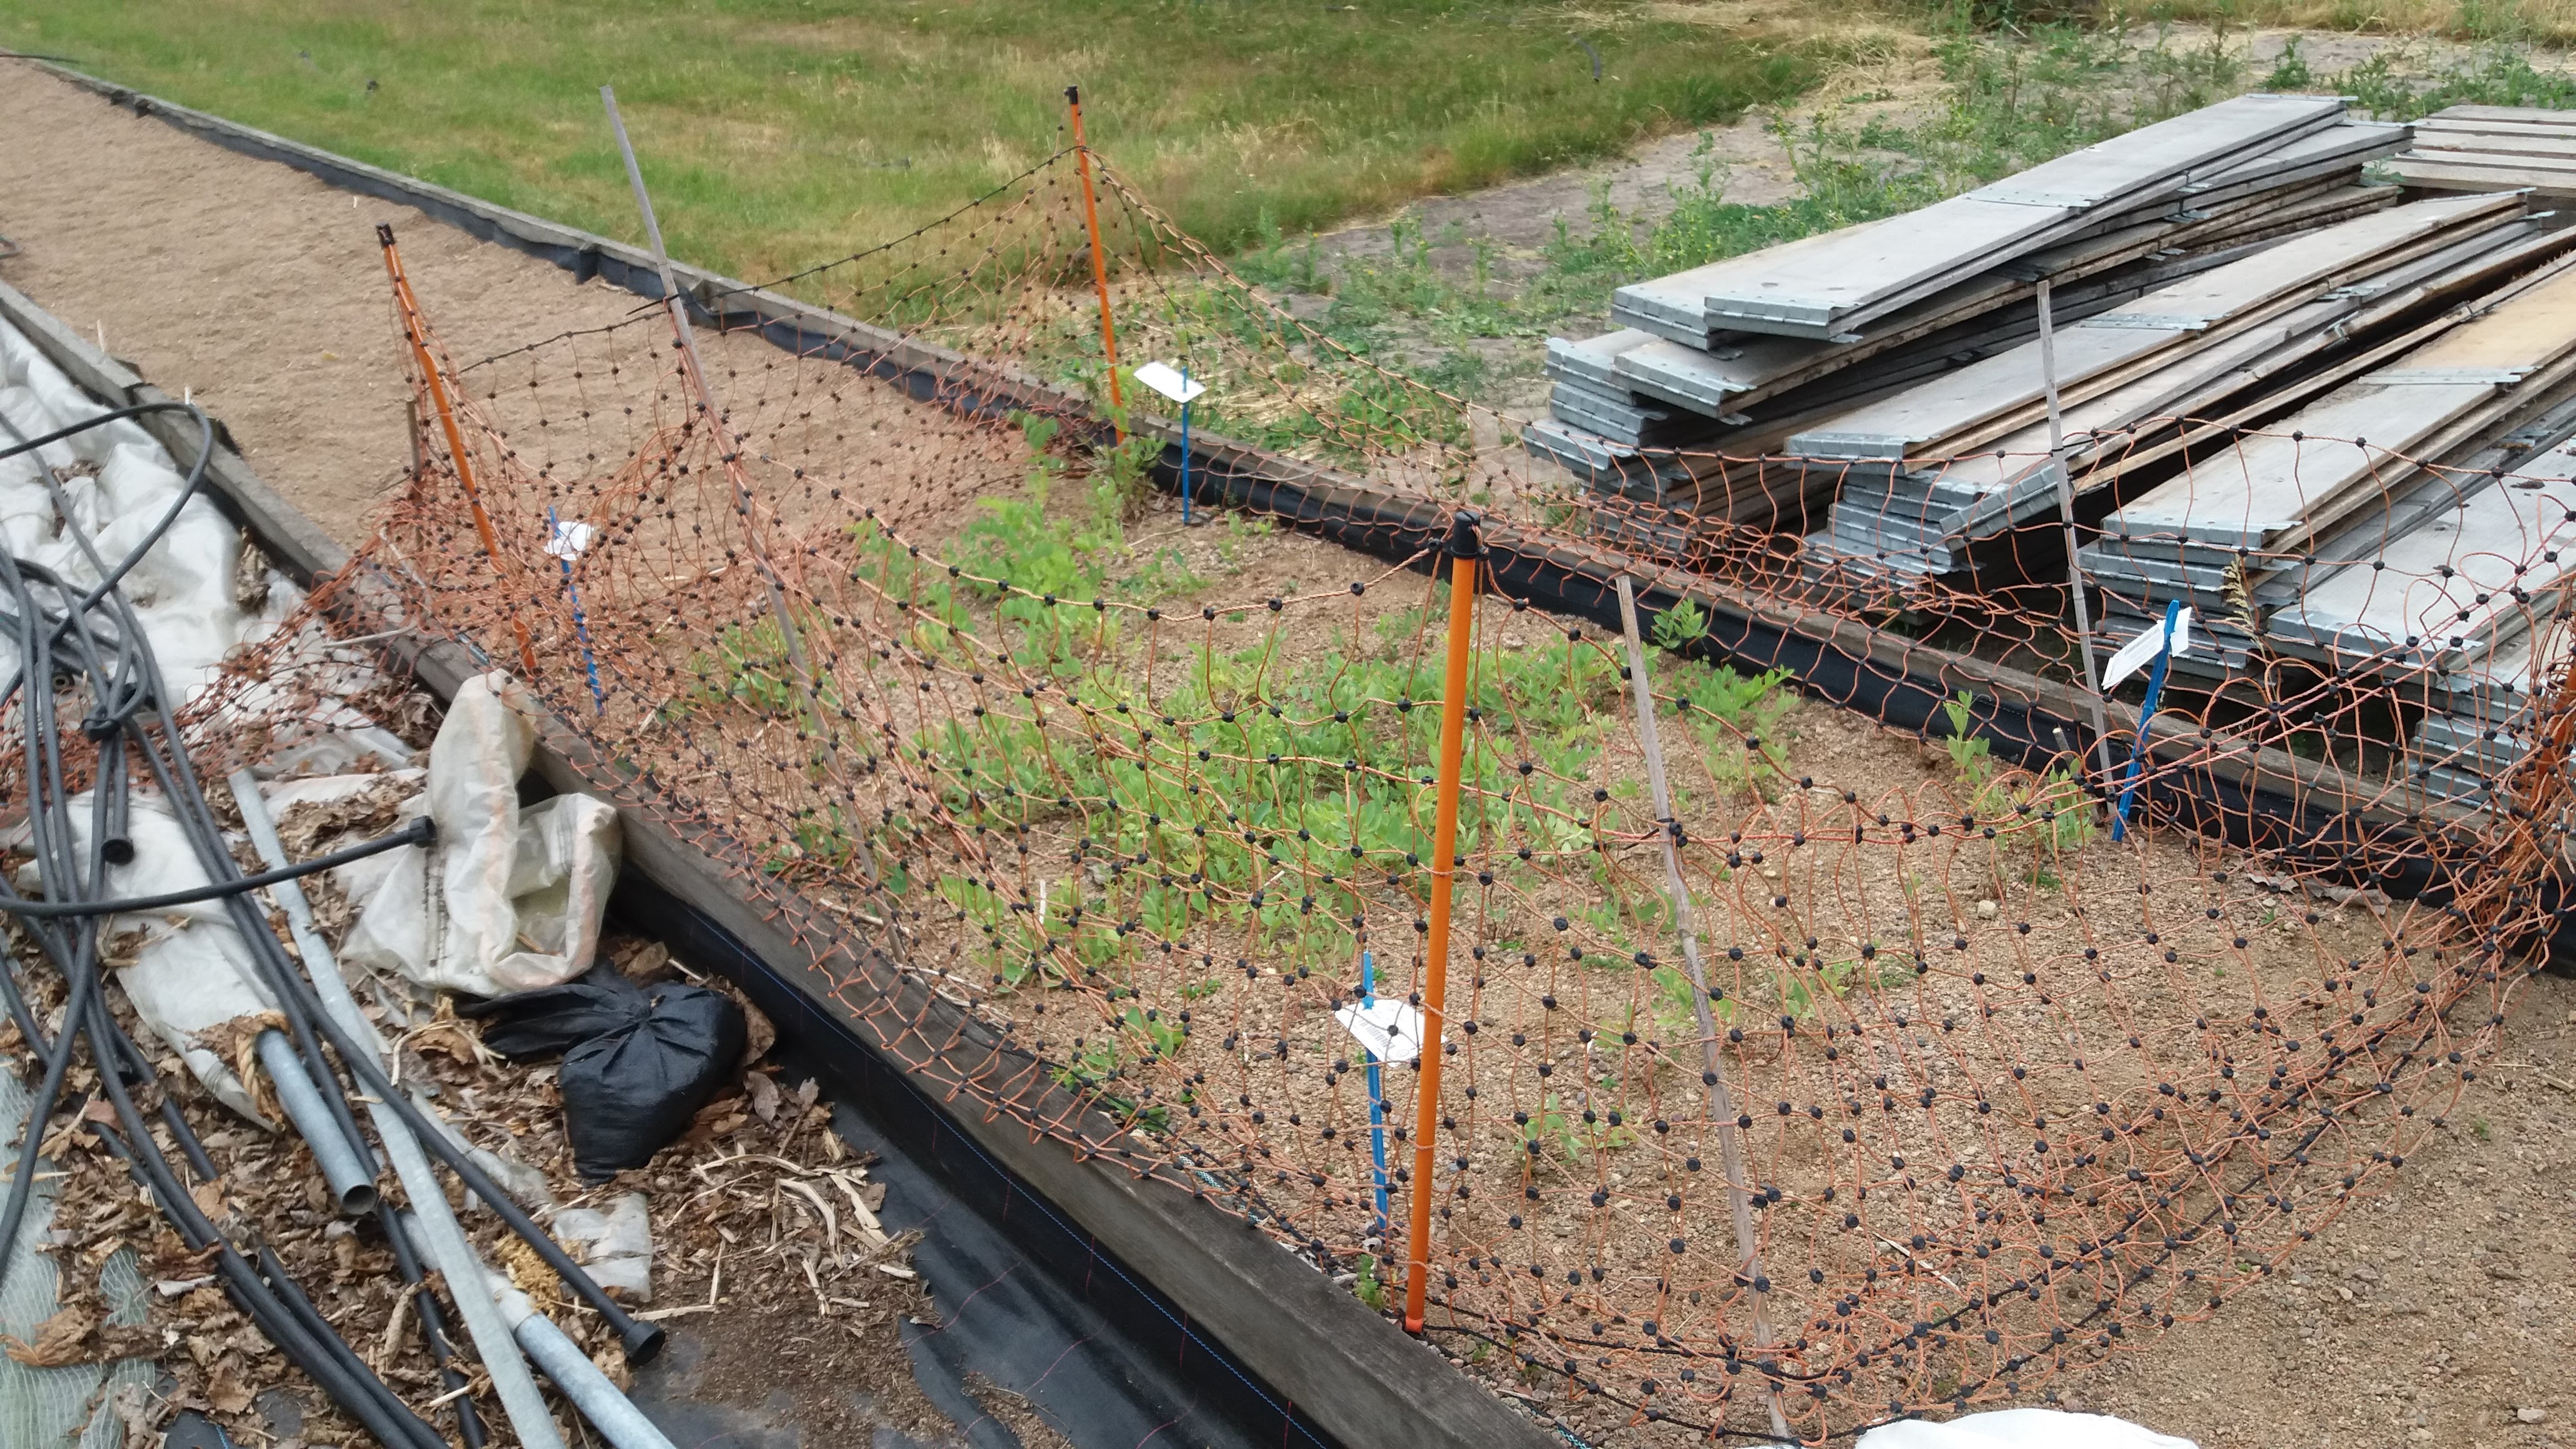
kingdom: Plantae
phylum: Tracheophyta
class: Magnoliopsida
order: Fabales
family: Fabaceae
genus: Lathyrus
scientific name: Lathyrus japonicus
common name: Sea pea
